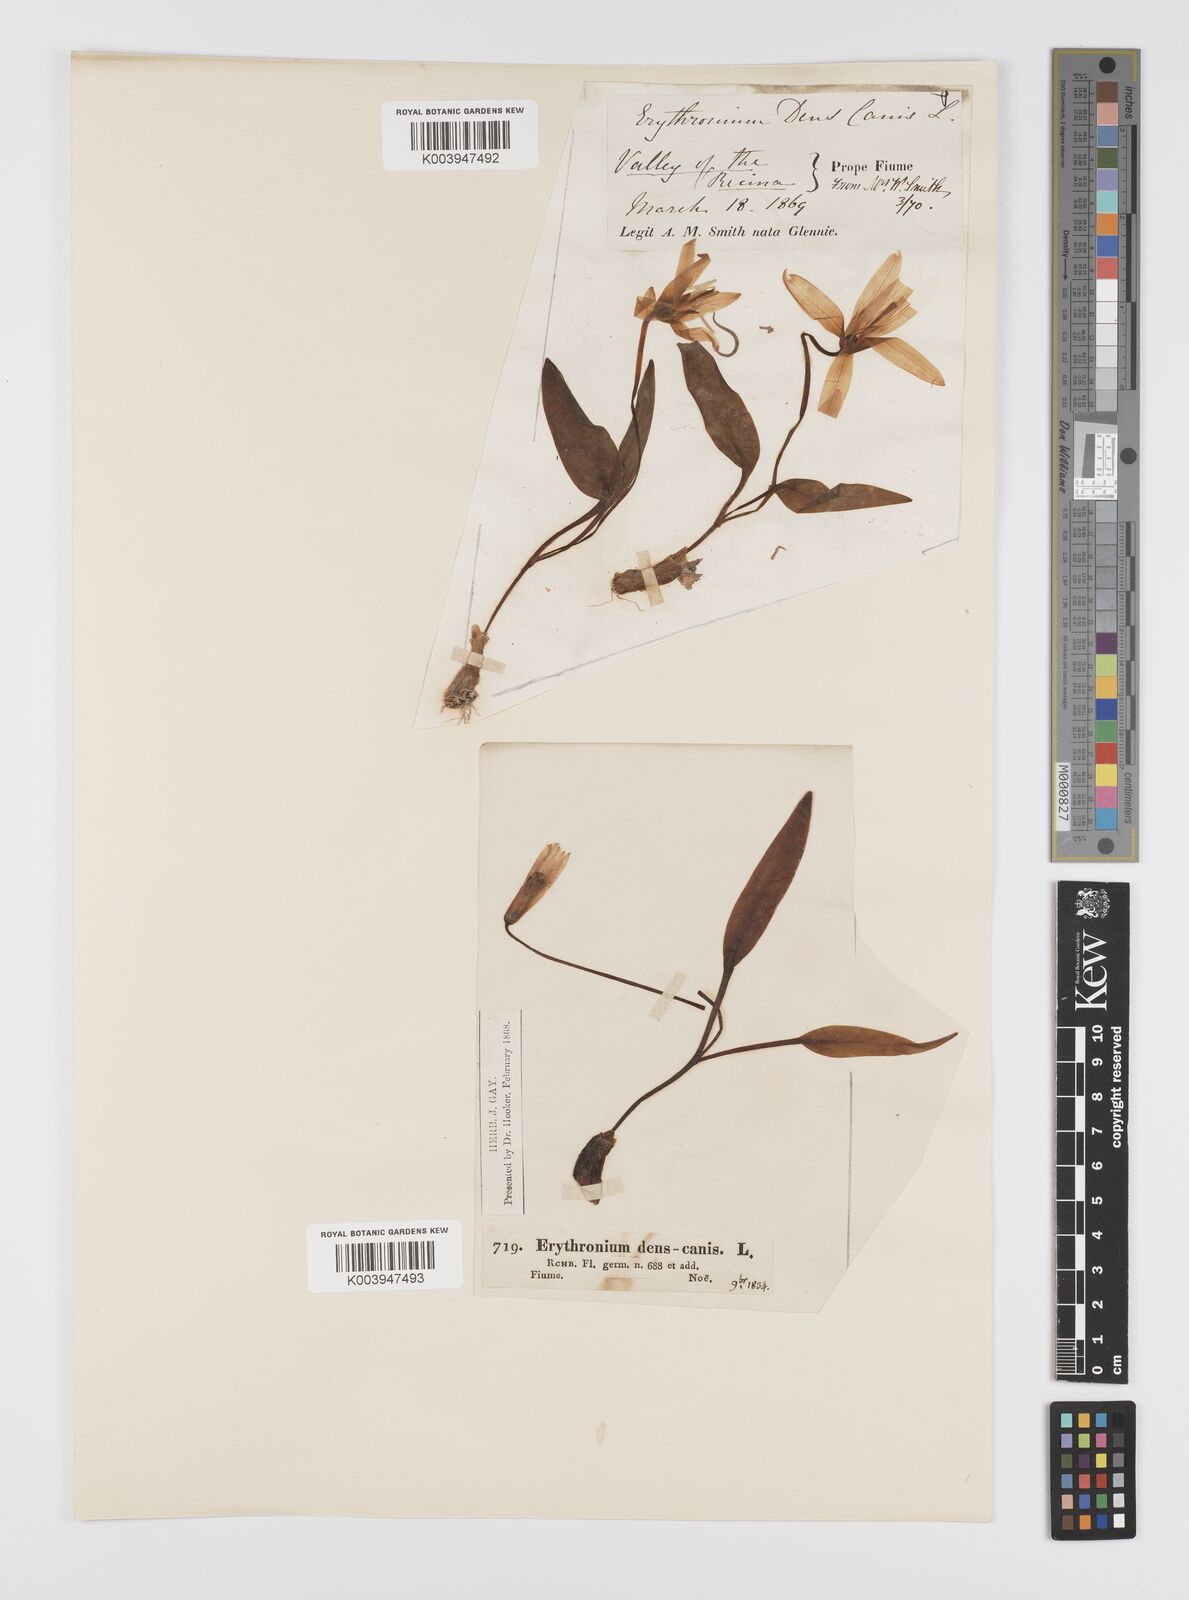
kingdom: Plantae
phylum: Tracheophyta
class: Liliopsida
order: Liliales
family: Liliaceae
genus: Erythronium
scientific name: Erythronium dens-canis
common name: Dog's-tooth-violet
